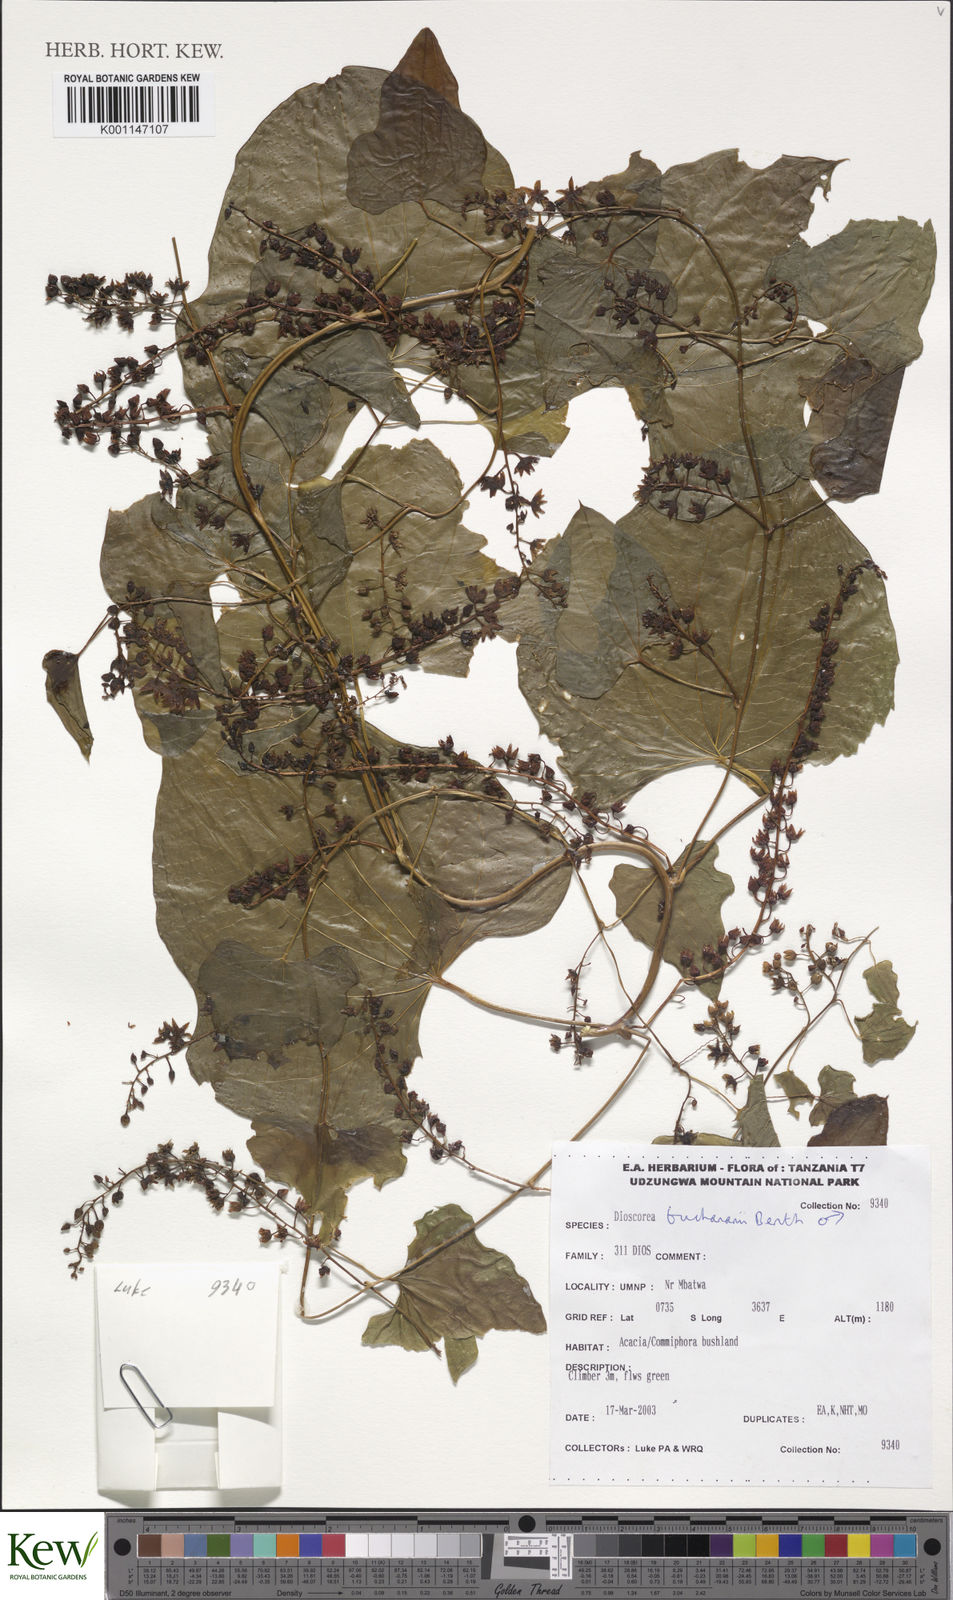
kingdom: Plantae
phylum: Tracheophyta
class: Liliopsida
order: Dioscoreales
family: Dioscoreaceae
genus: Dioscorea
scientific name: Dioscorea buchananii
